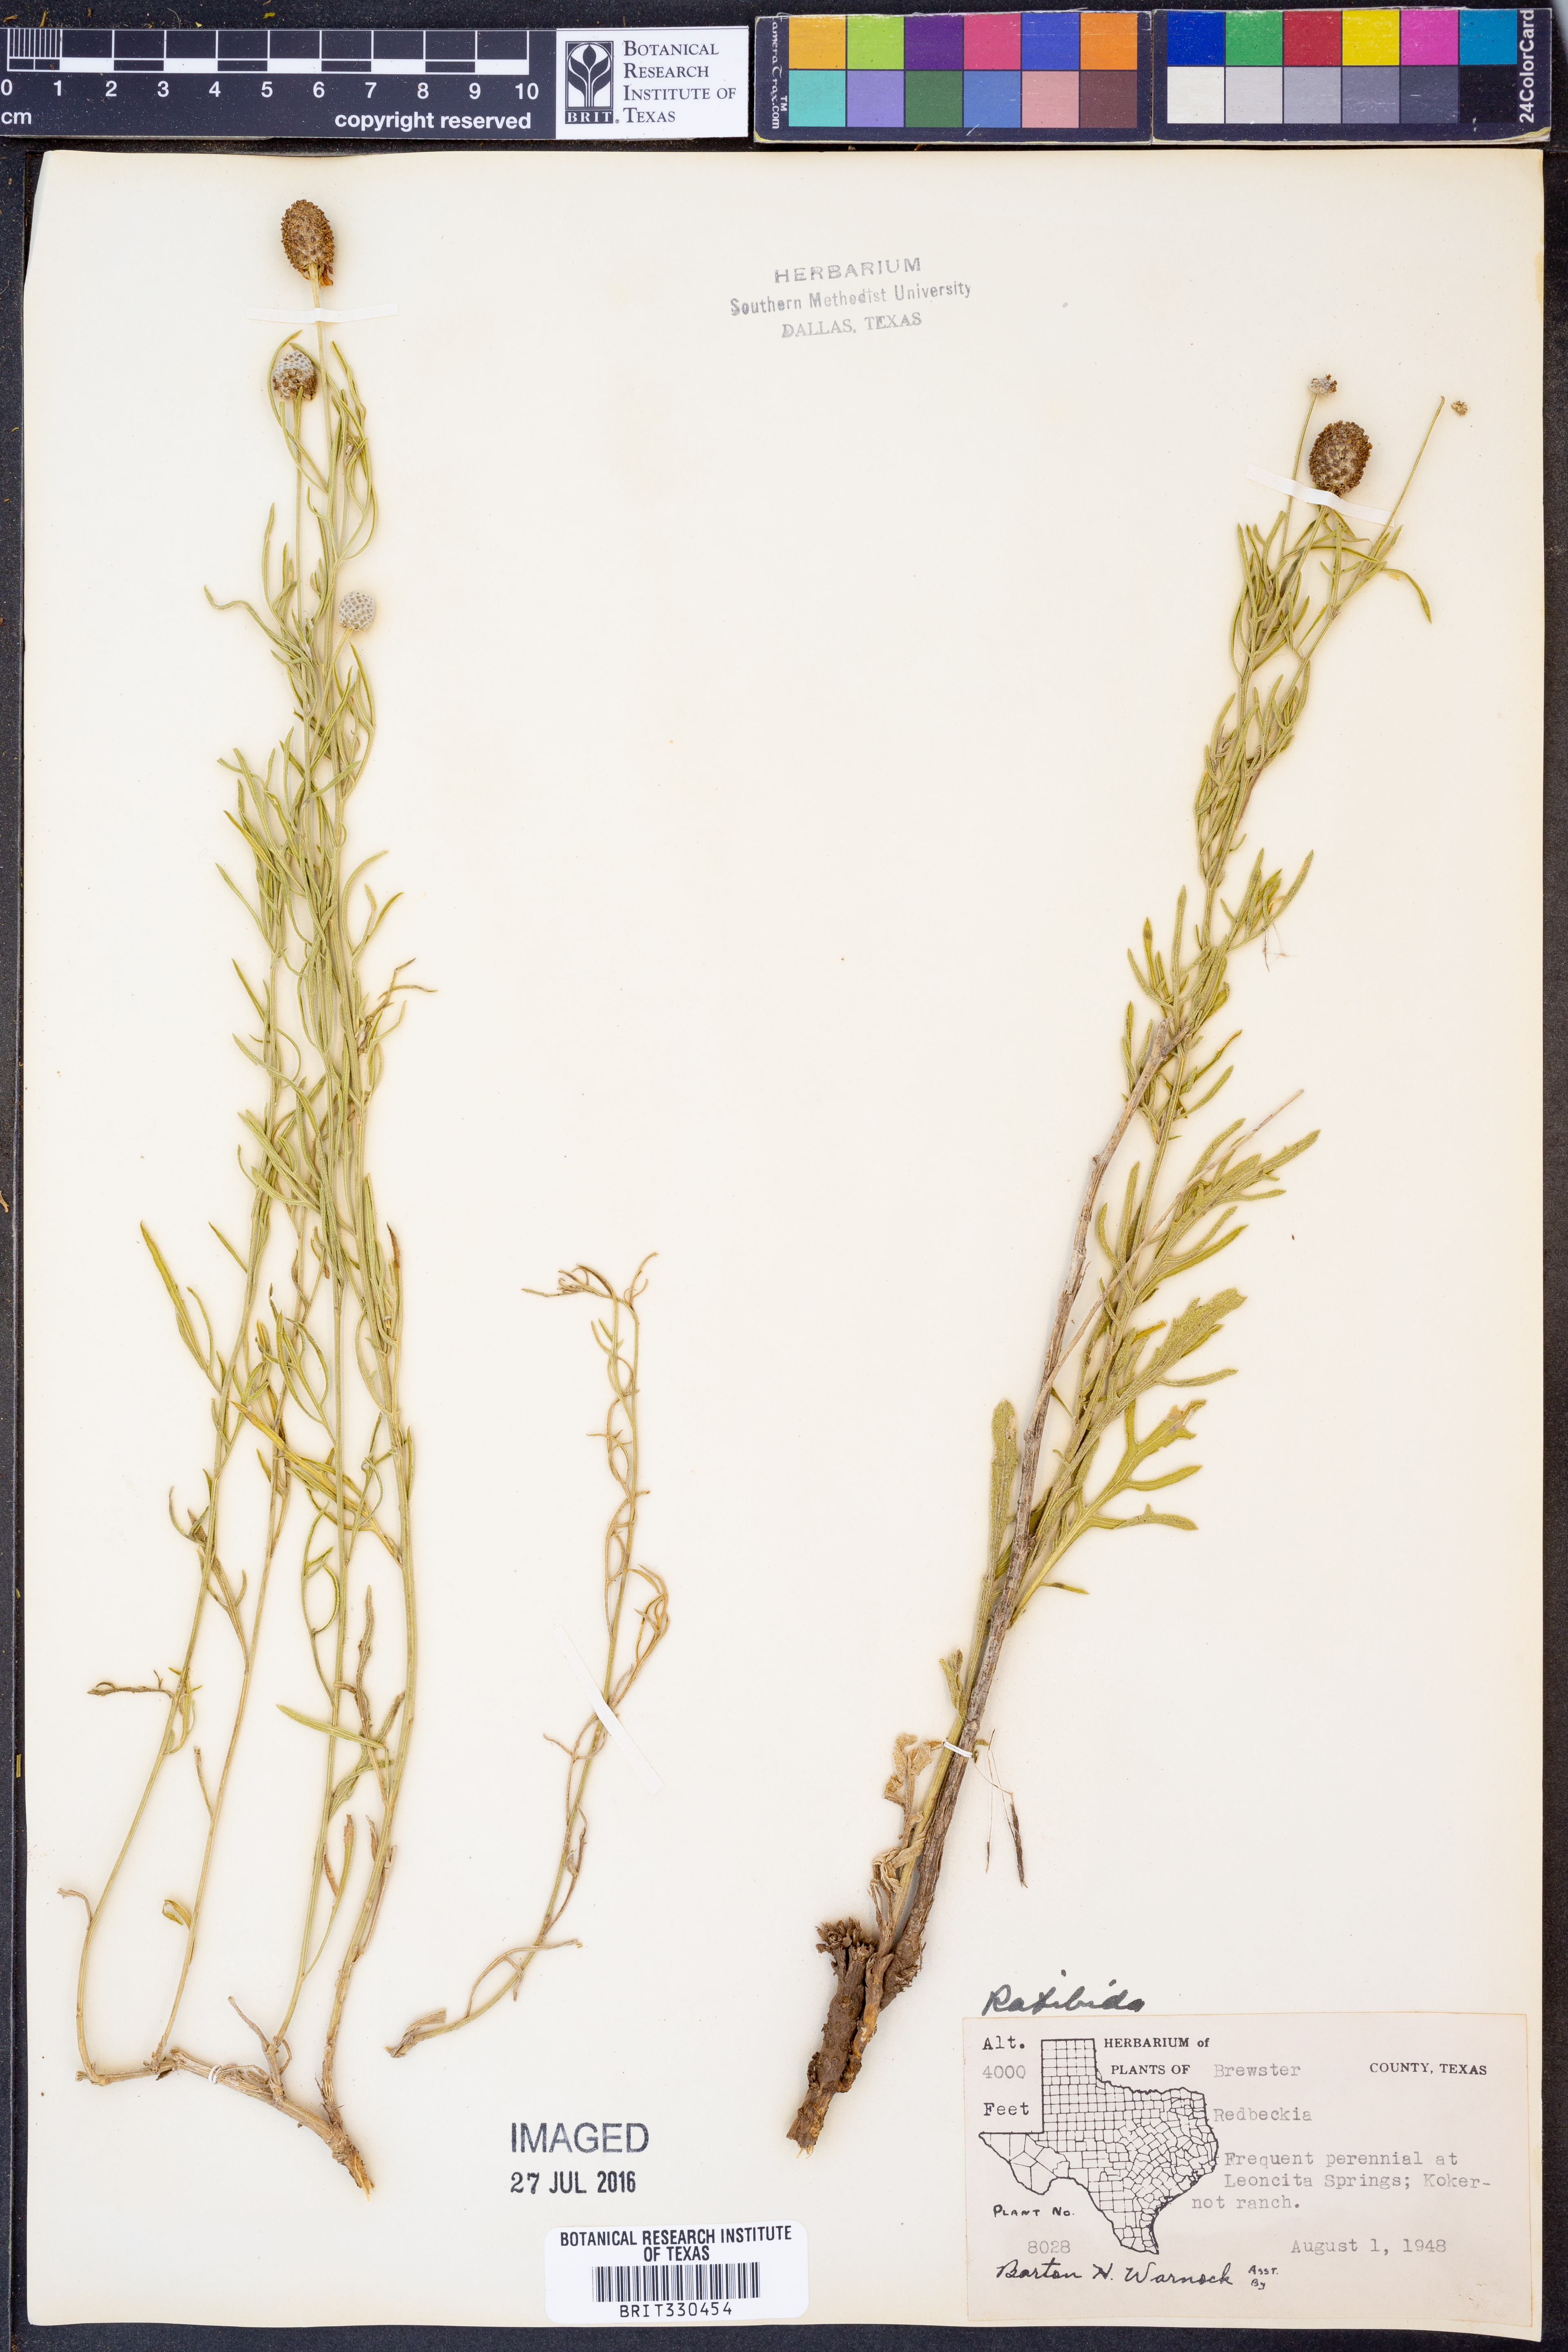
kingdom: Plantae
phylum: Tracheophyta
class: Magnoliopsida
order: Asterales
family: Asteraceae
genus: Ratibida
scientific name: Ratibida
